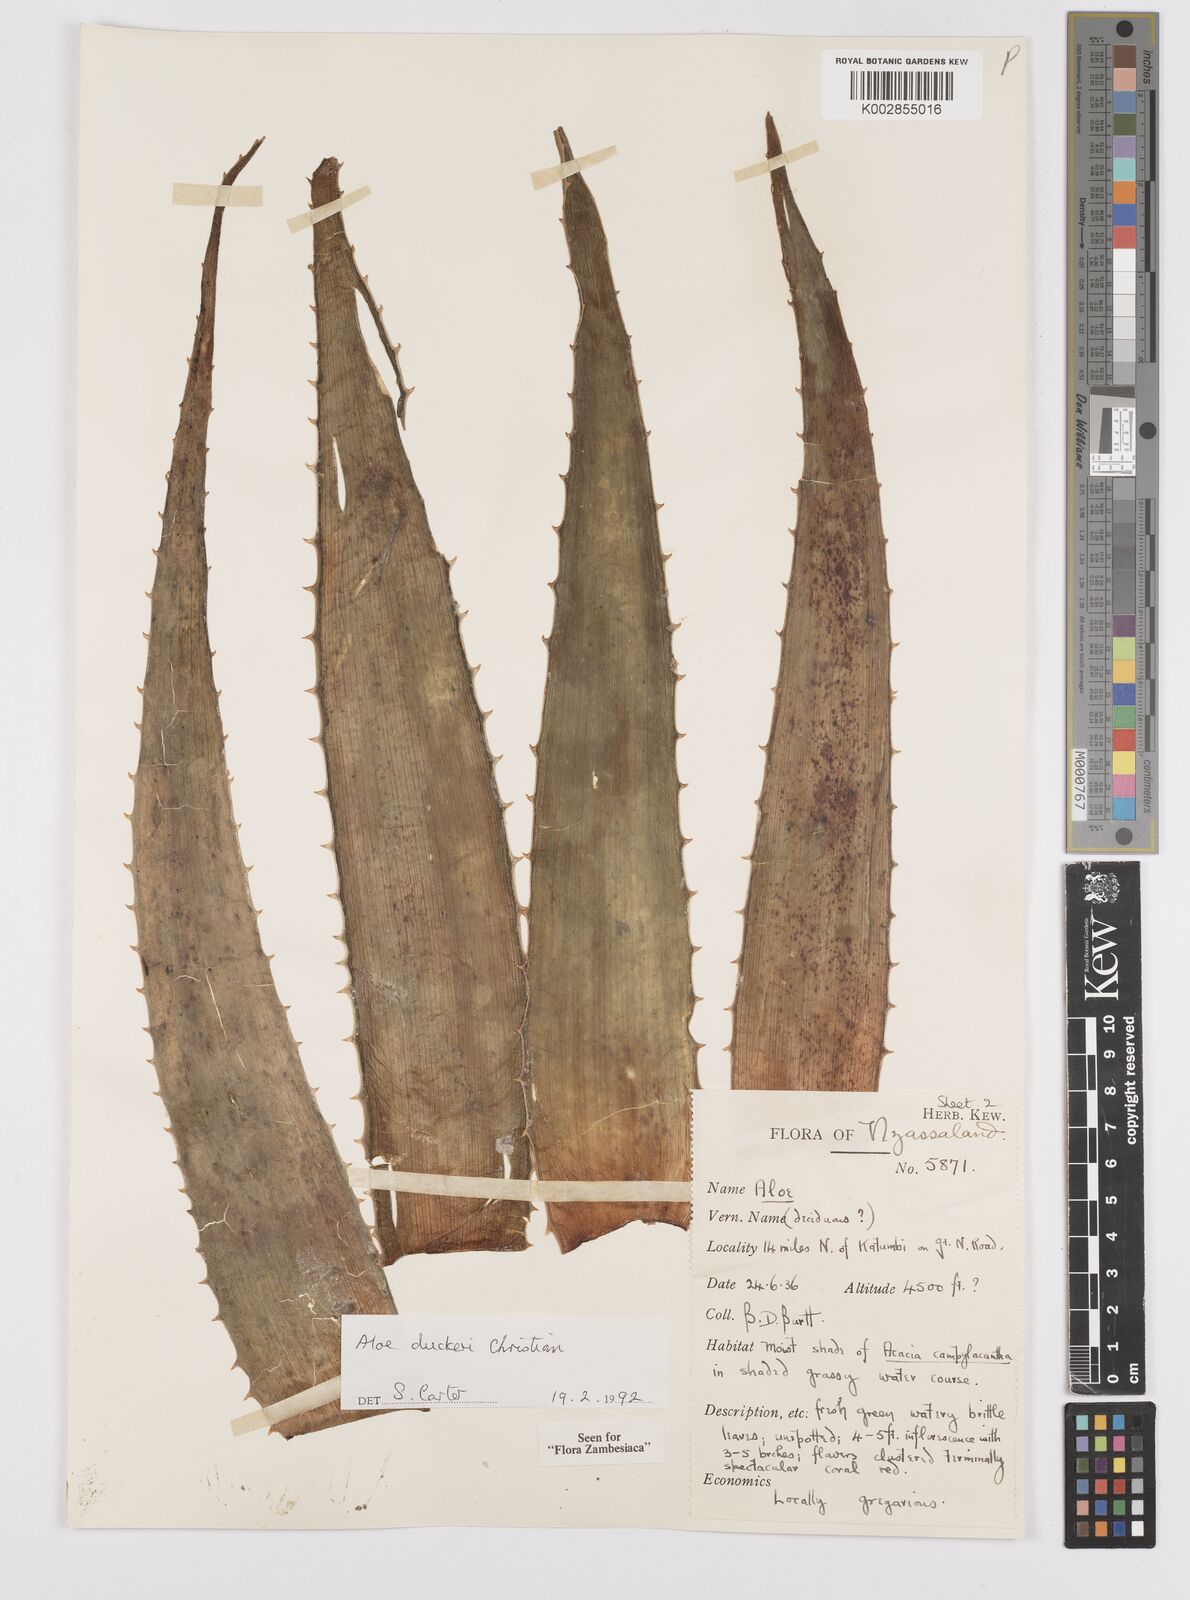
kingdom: Plantae
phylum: Tracheophyta
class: Liliopsida
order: Asparagales
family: Asphodelaceae
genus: Aloe
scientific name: Aloe duckeri
